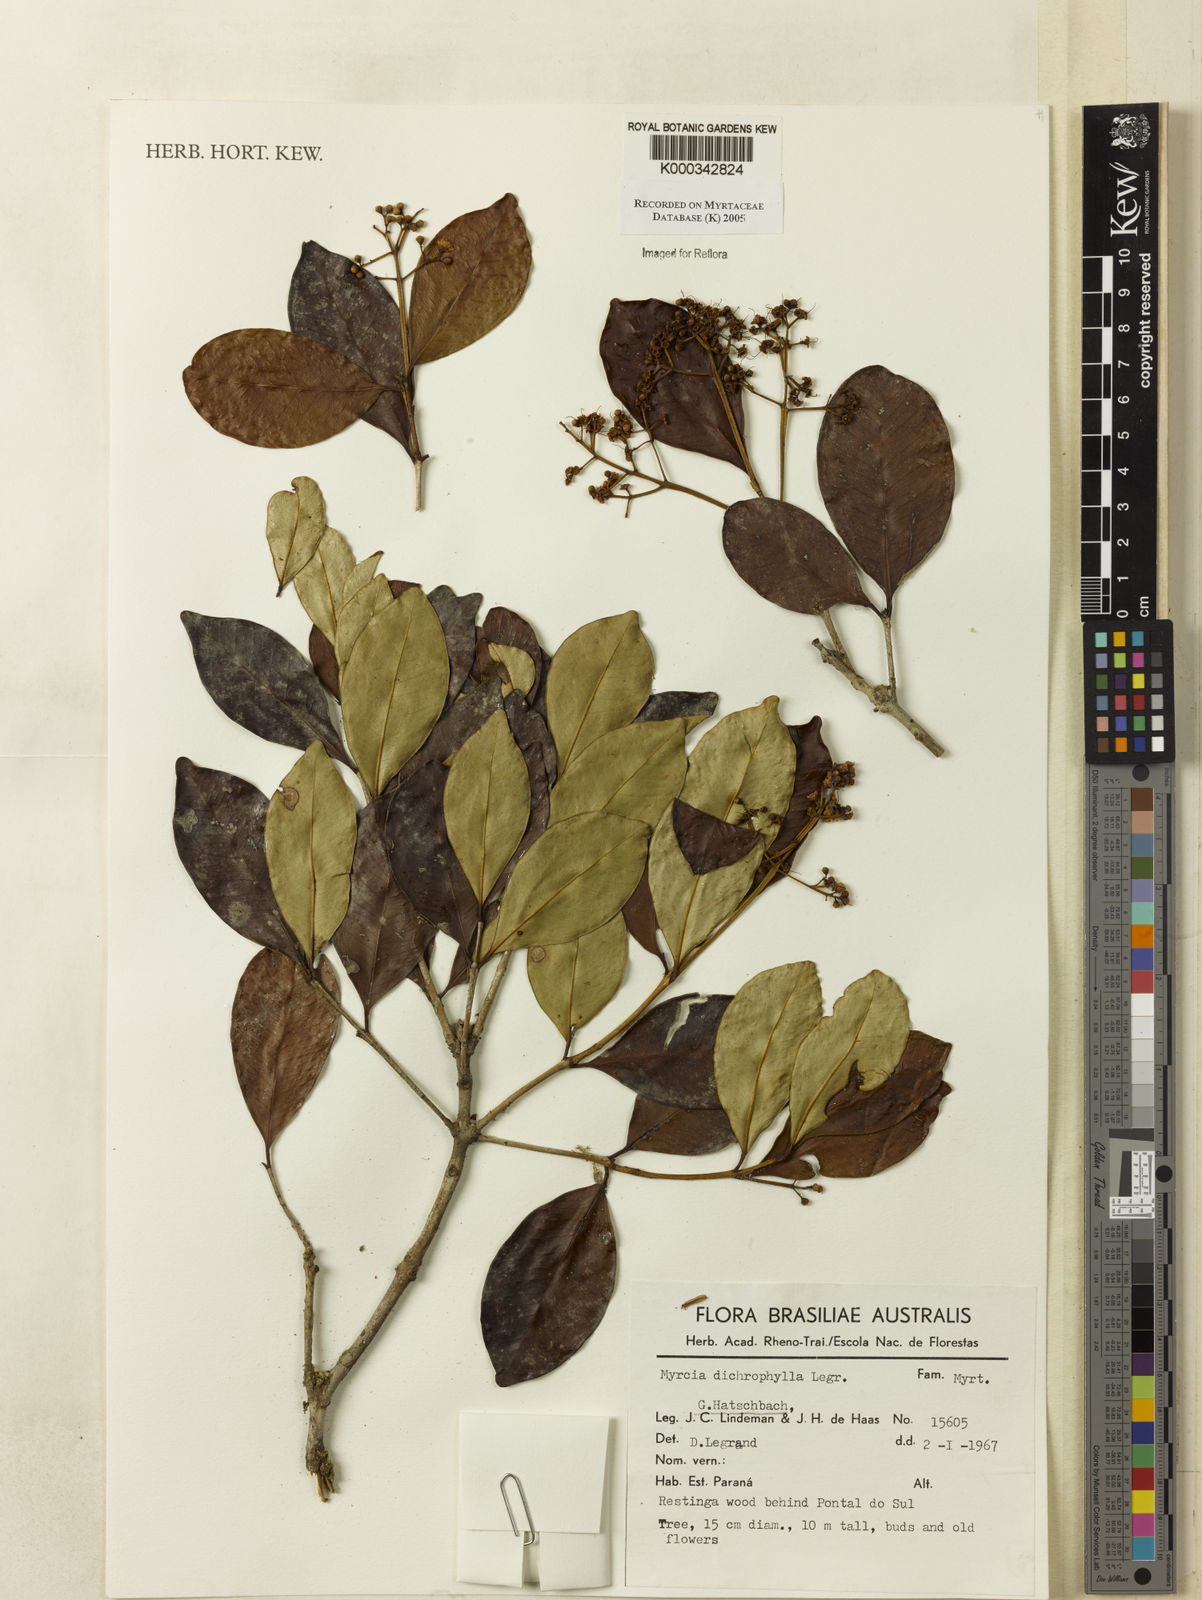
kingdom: Plantae
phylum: Tracheophyta
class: Magnoliopsida
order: Myrtales
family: Myrtaceae
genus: Myrcia
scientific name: Myrcia dichrophylla
